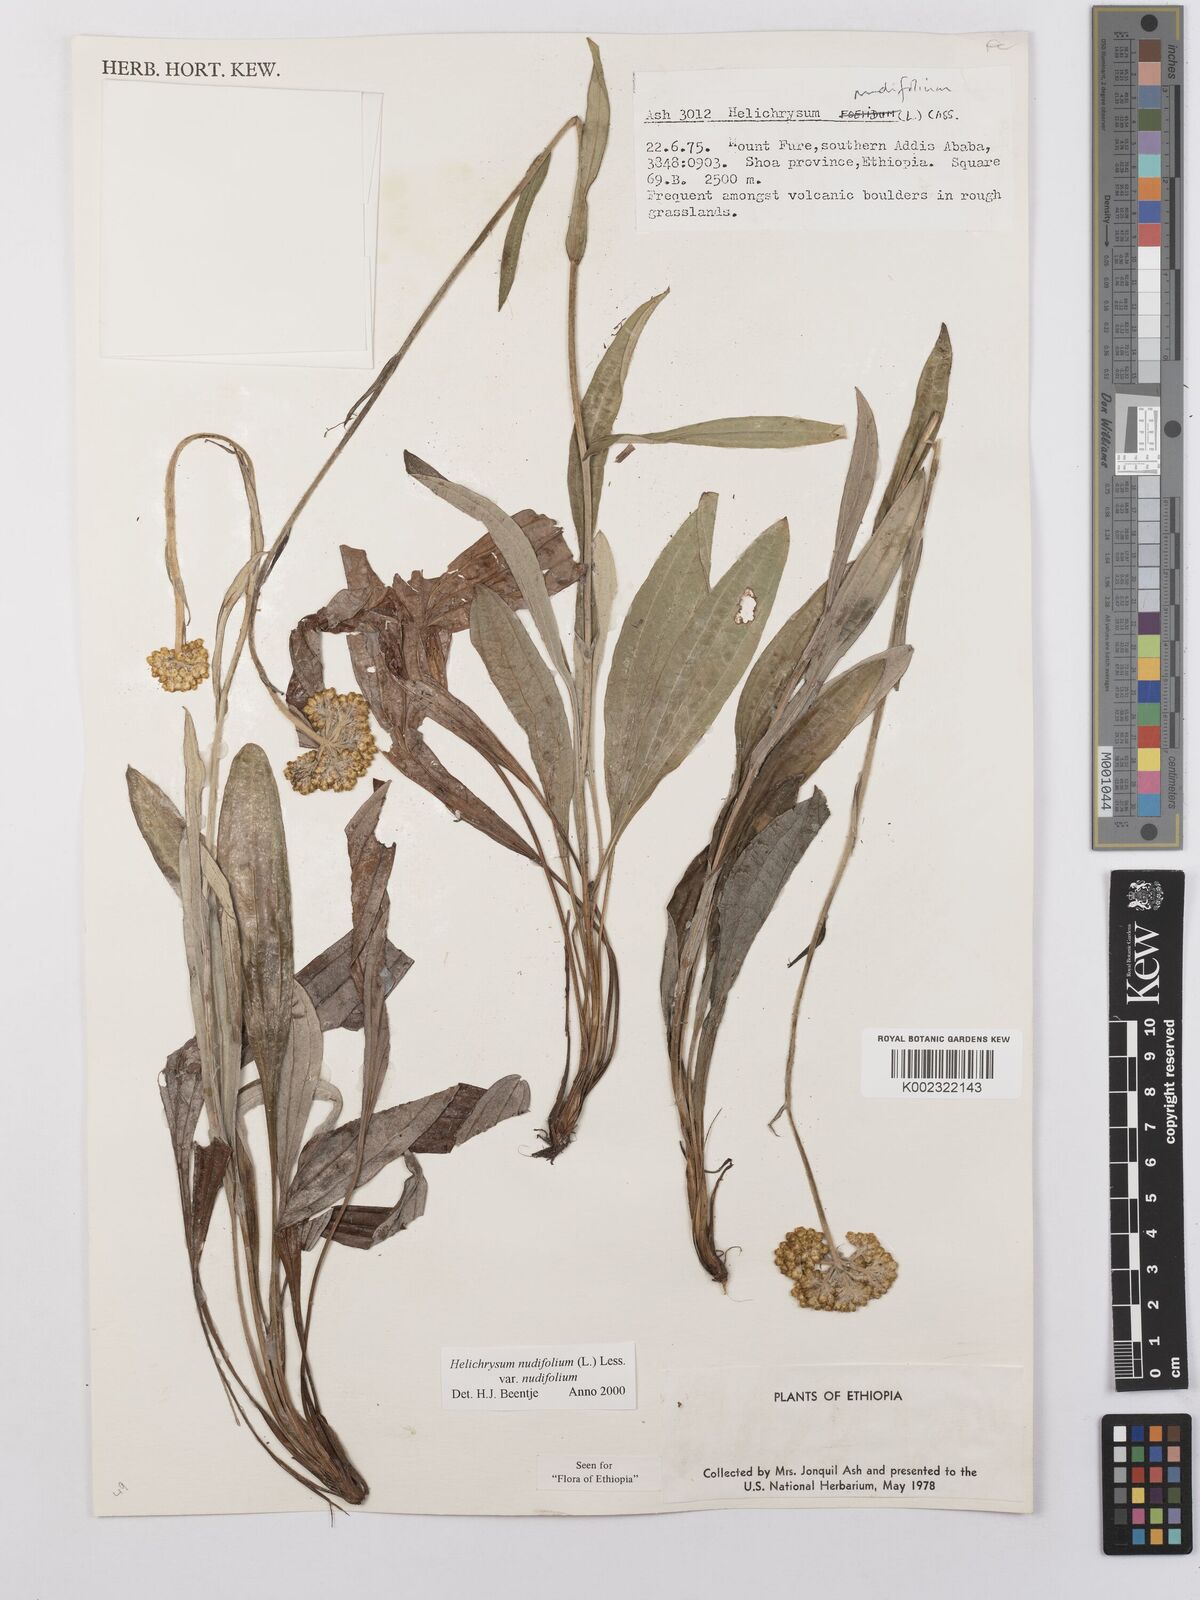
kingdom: Plantae
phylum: Tracheophyta
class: Magnoliopsida
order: Asterales
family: Asteraceae
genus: Helichrysum
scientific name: Helichrysum nudifolium
